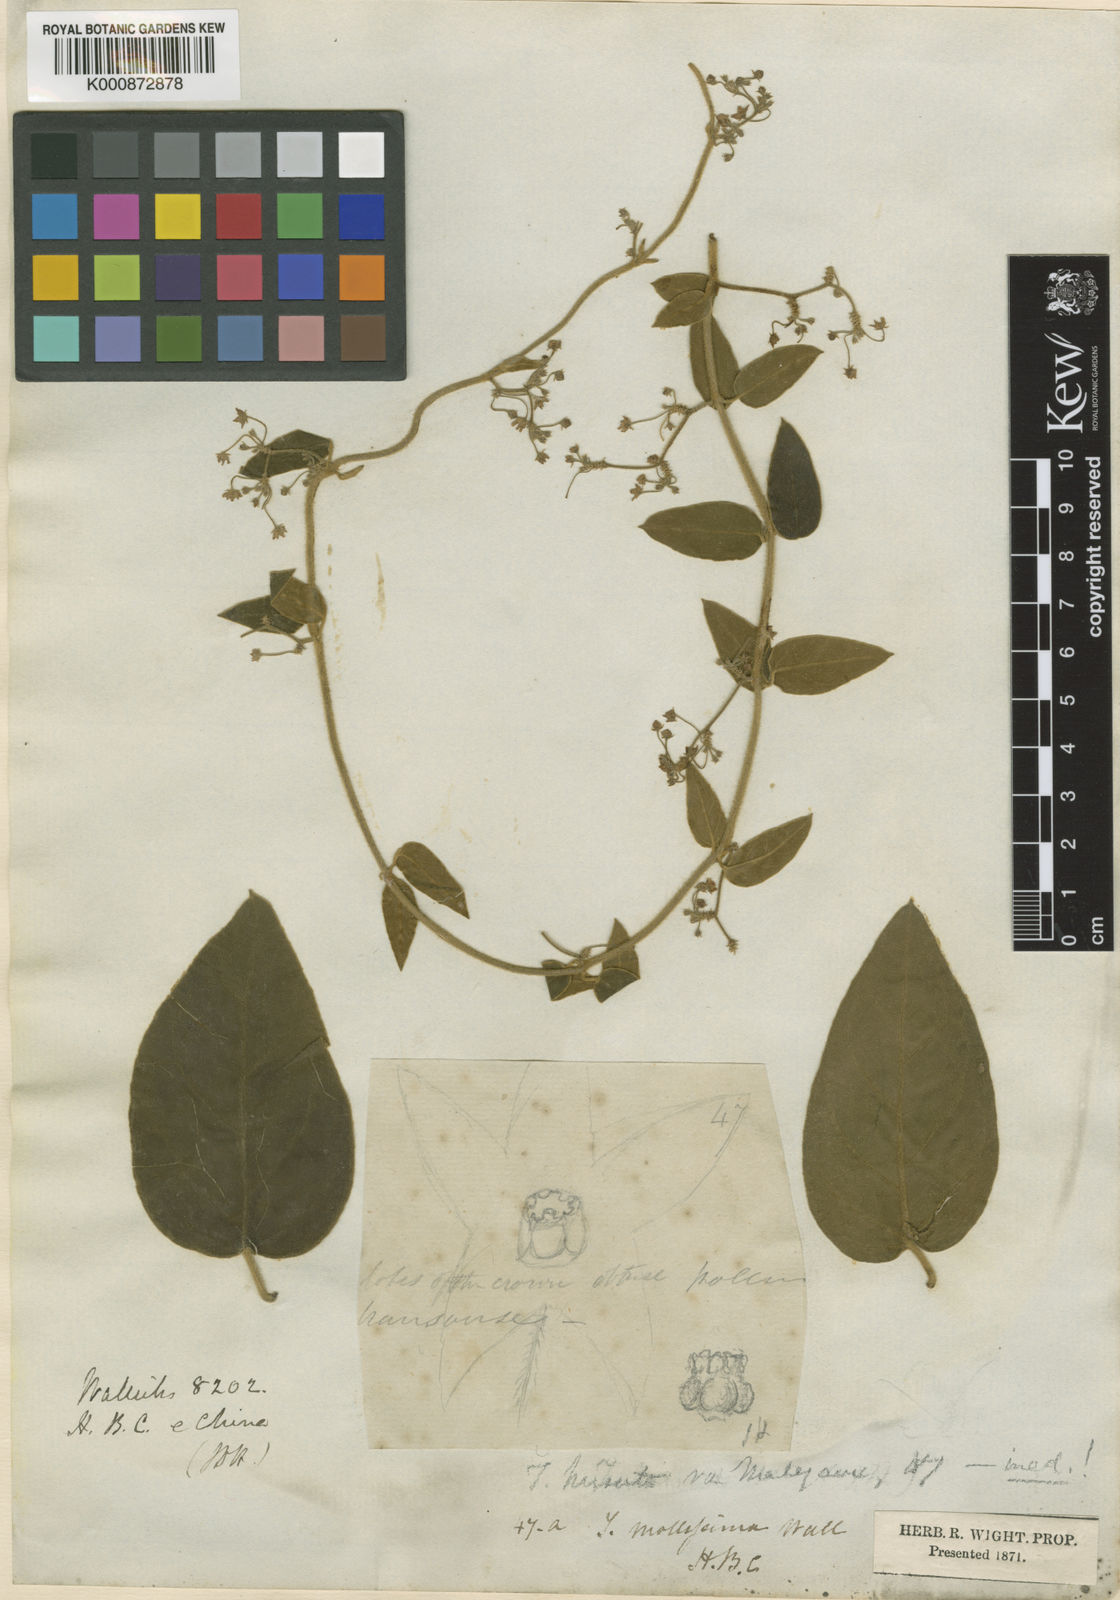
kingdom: Plantae
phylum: Tracheophyta
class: Magnoliopsida
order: Gentianales
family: Apocynaceae
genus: Vincetoxicum
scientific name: Vincetoxicum hirsutum
